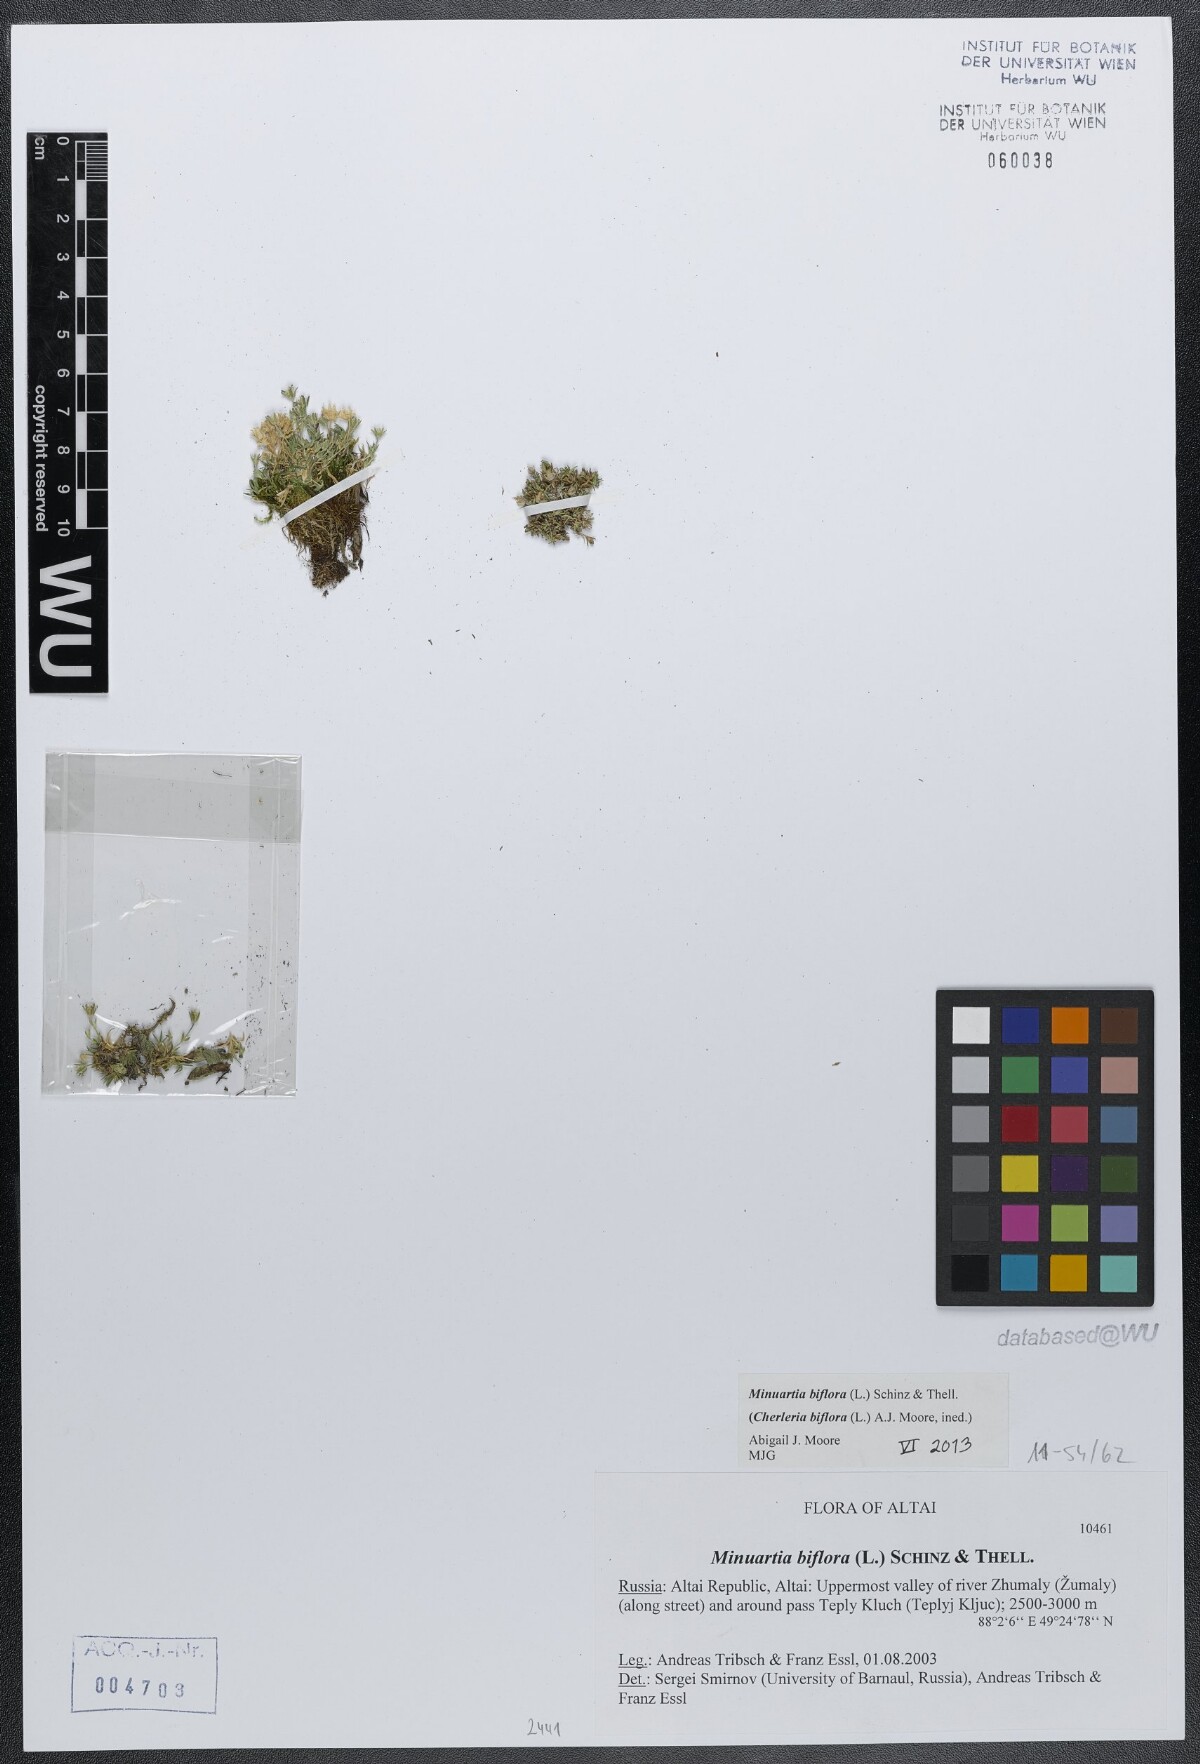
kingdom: Plantae
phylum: Tracheophyta
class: Magnoliopsida
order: Caryophyllales
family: Caryophyllaceae
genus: Cherleria
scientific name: Cherleria biflora
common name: Mountain sandwort
